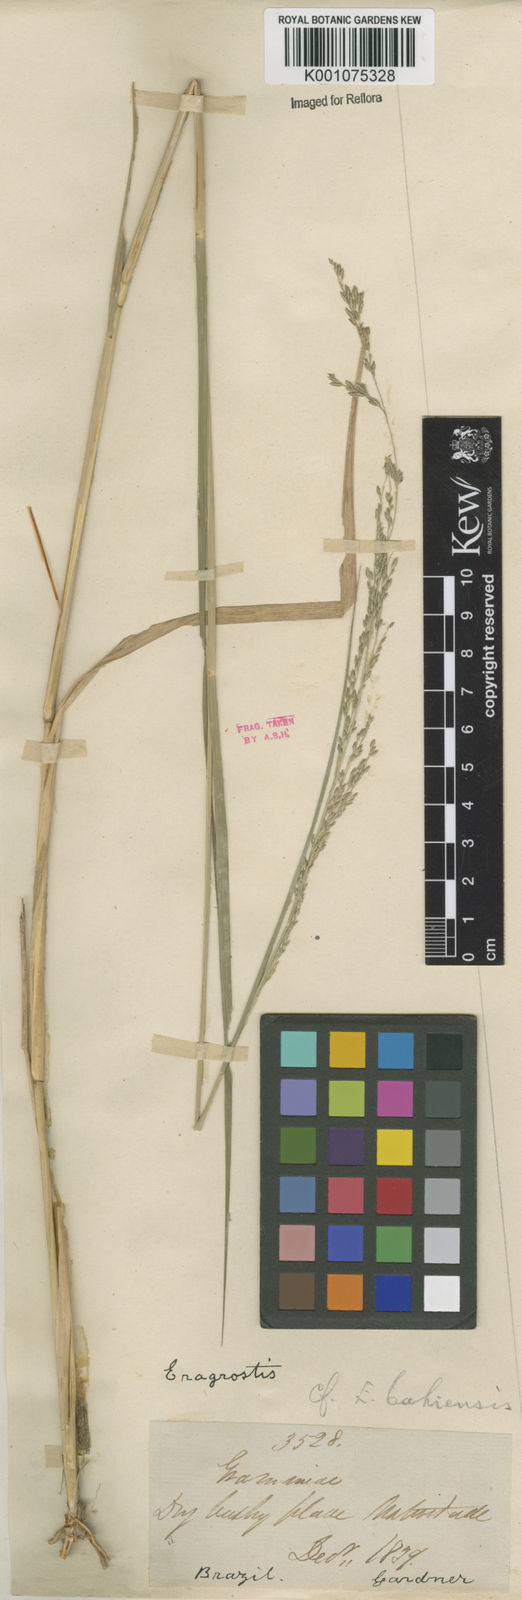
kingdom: Plantae
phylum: Tracheophyta
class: Liliopsida
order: Poales
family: Poaceae
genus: Eragrostis
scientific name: Eragrostis bahiensis
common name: Bahia lovegrass
